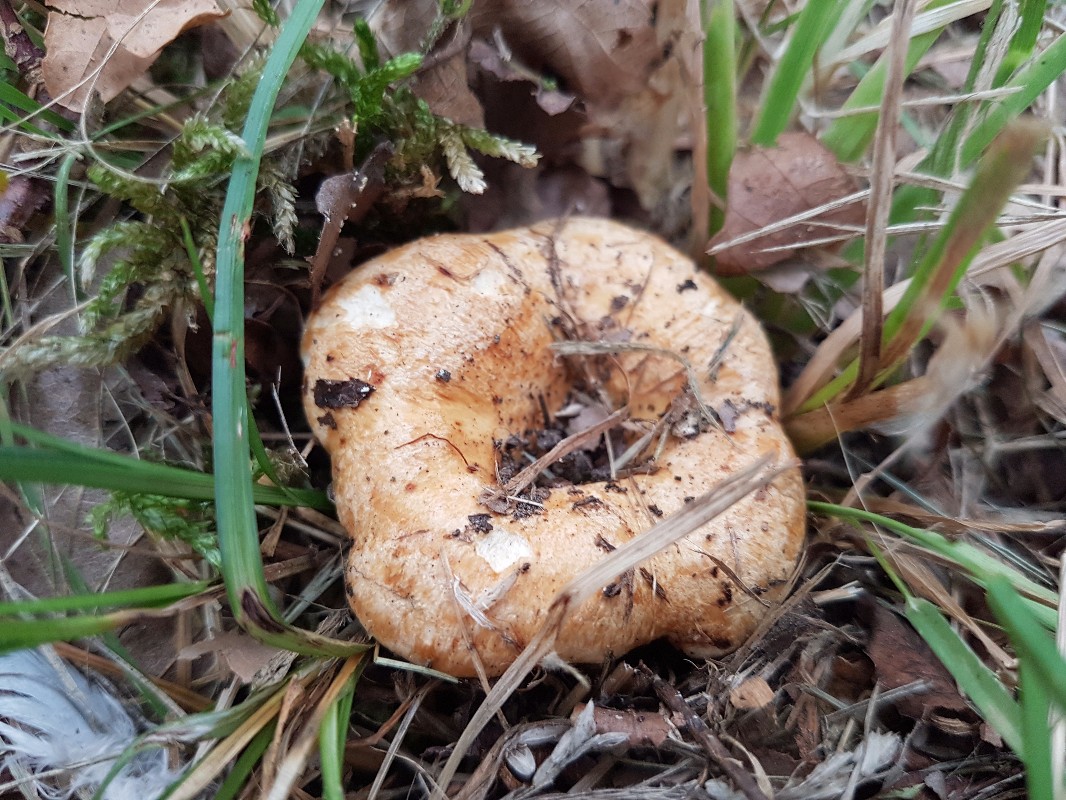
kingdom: Fungi
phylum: Basidiomycota
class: Agaricomycetes
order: Russulales
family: Russulaceae
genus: Lactarius
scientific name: Lactarius acerrimus
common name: brændende mælkehat
